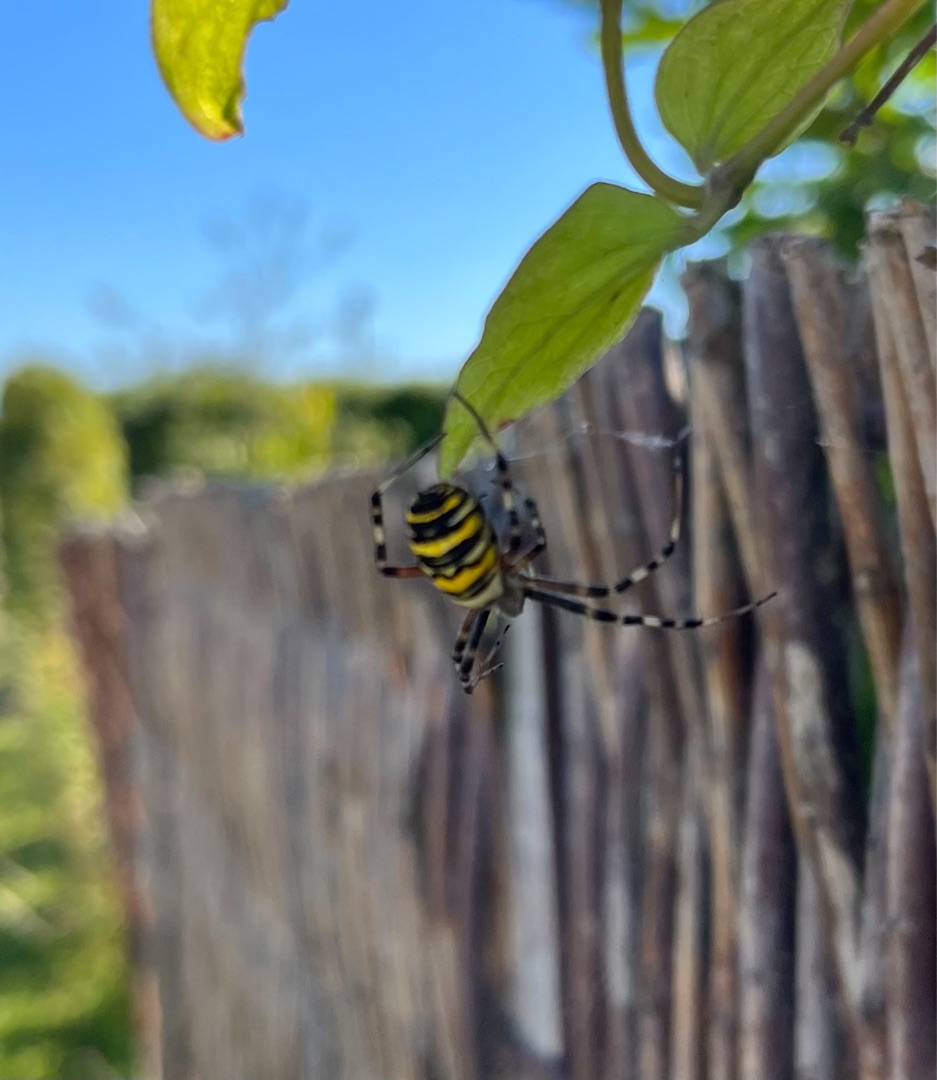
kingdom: Animalia
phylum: Arthropoda
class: Arachnida
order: Araneae
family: Araneidae
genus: Argiope
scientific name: Argiope bruennichi
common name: Hvepseedderkop
